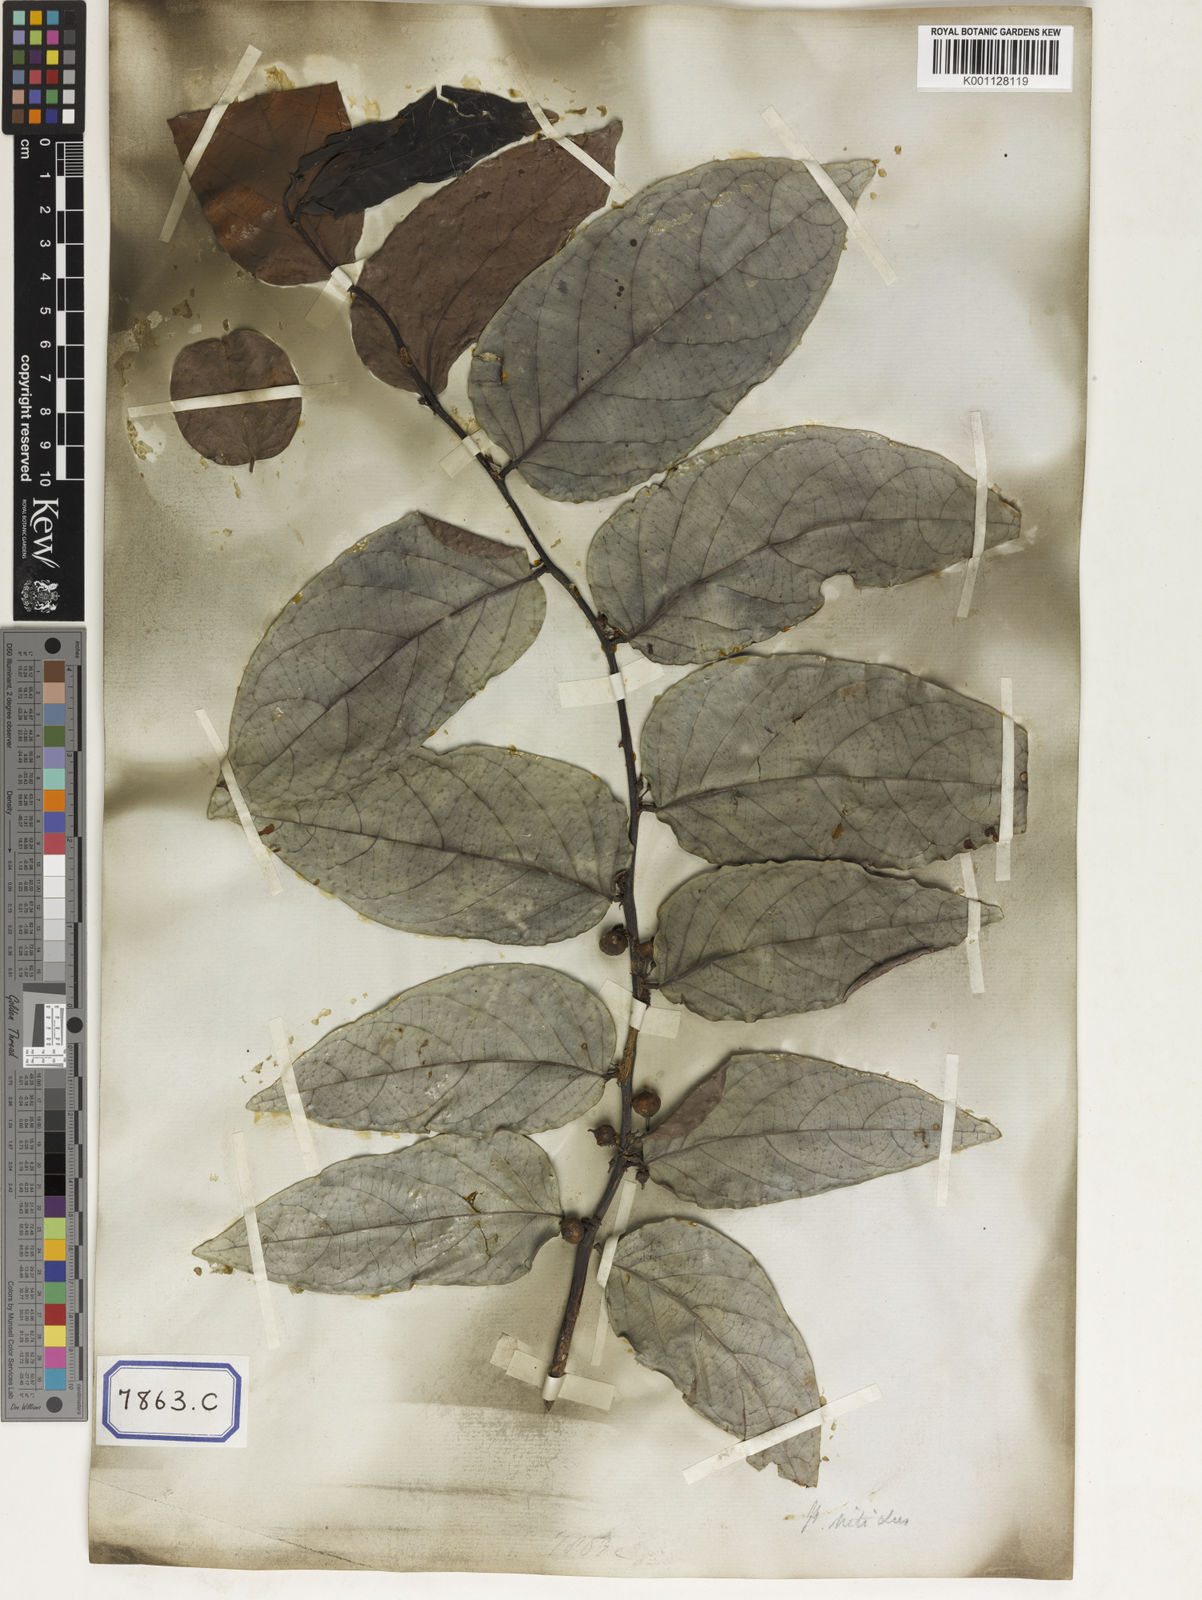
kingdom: Plantae
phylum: Tracheophyta
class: Magnoliopsida
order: Malpighiales
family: Euphorbiaceae
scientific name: Euphorbiaceae
